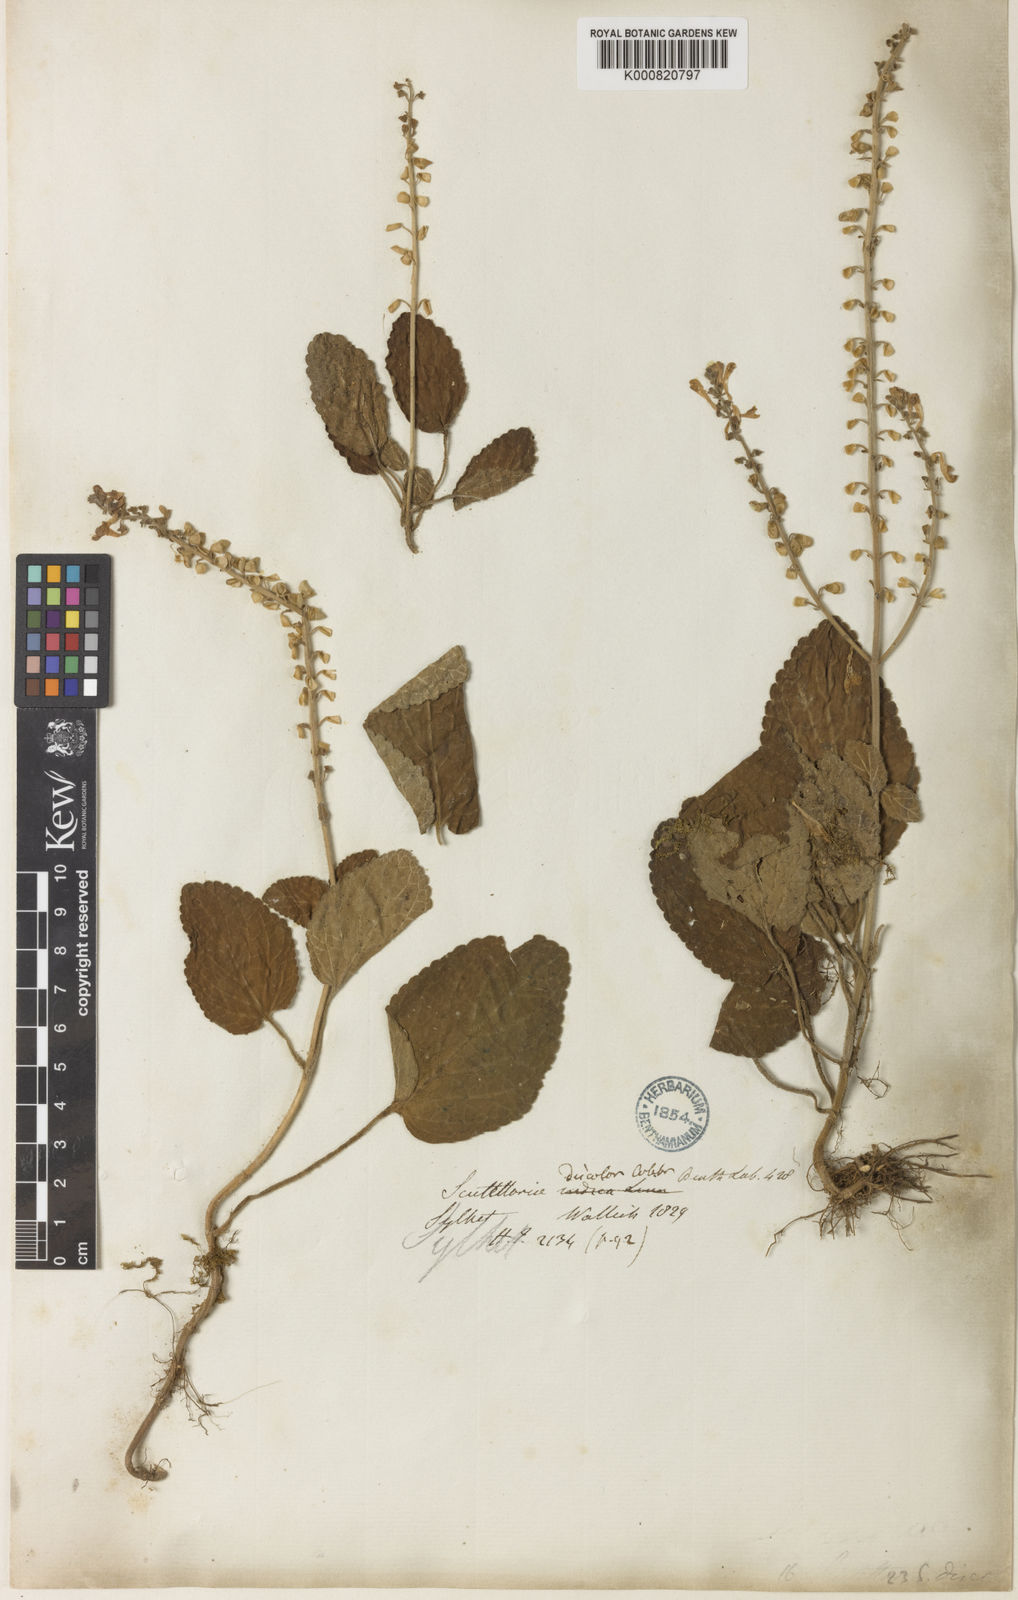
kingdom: Plantae
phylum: Tracheophyta
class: Magnoliopsida
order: Lamiales
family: Lamiaceae
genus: Scutellaria
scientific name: Scutellaria
